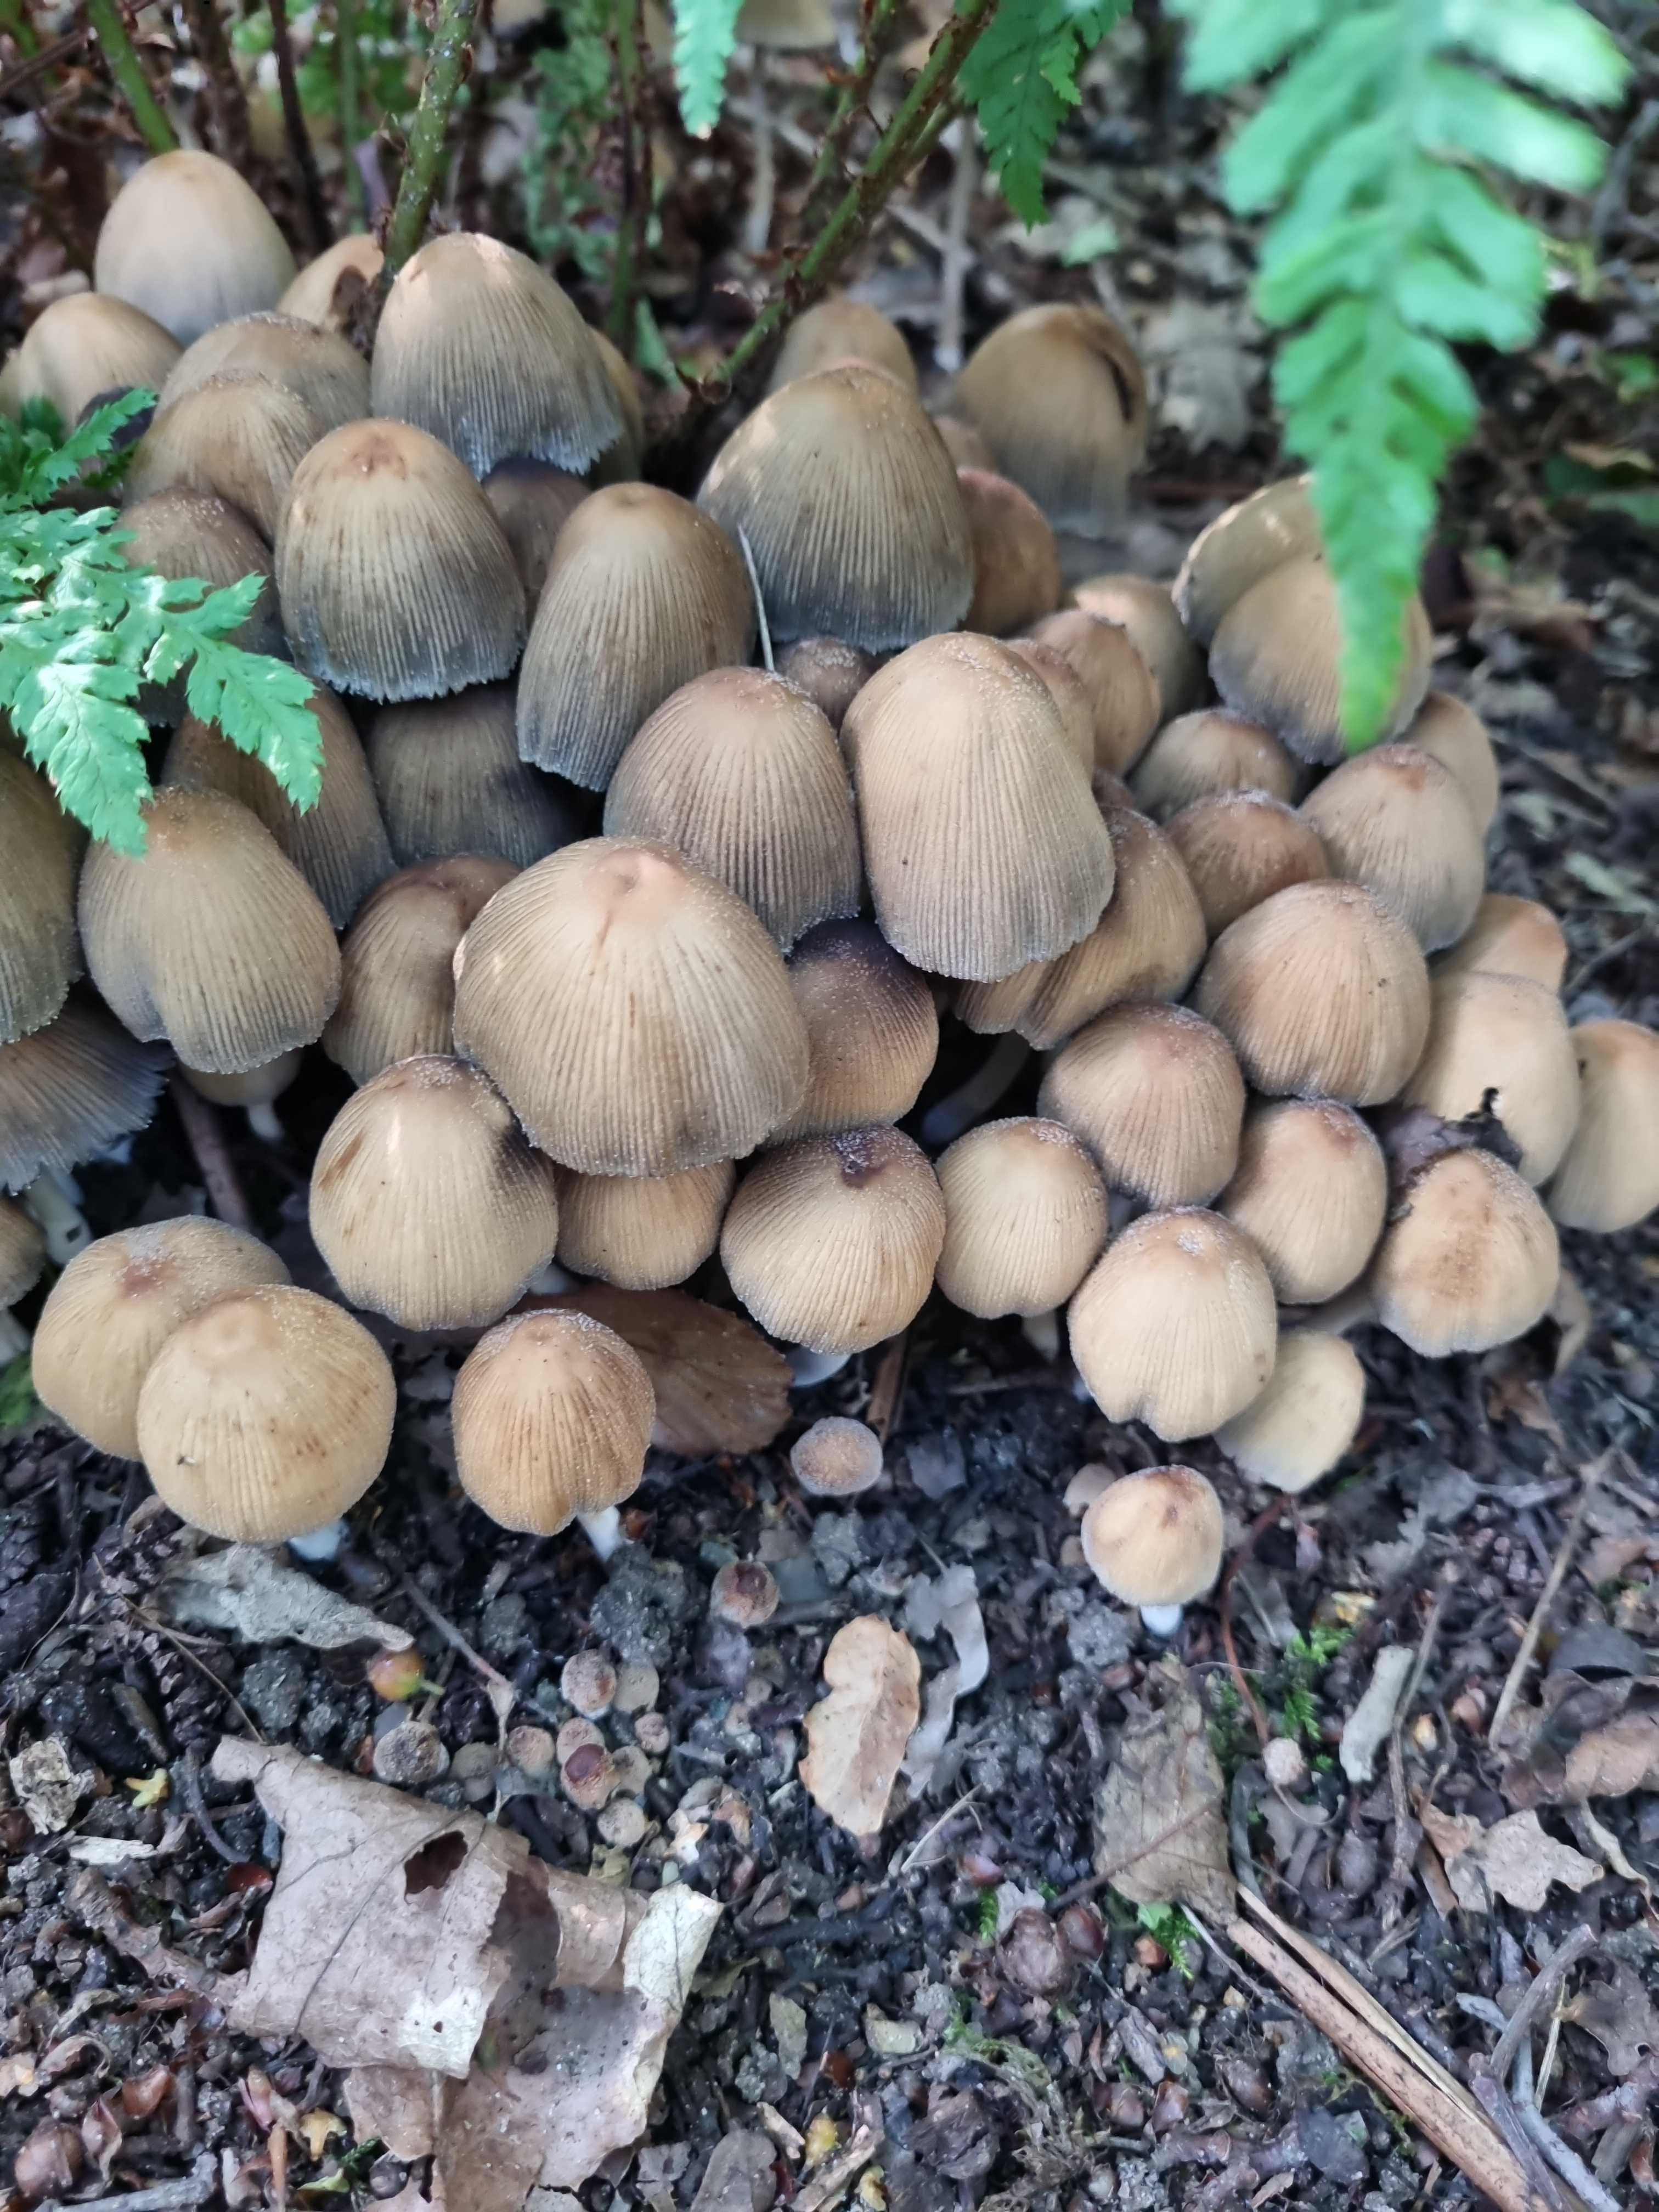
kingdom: Fungi
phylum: Basidiomycota
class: Agaricomycetes
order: Agaricales
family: Psathyrellaceae
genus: Coprinellus
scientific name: Coprinellus micaceus
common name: glimmer-blækhat
